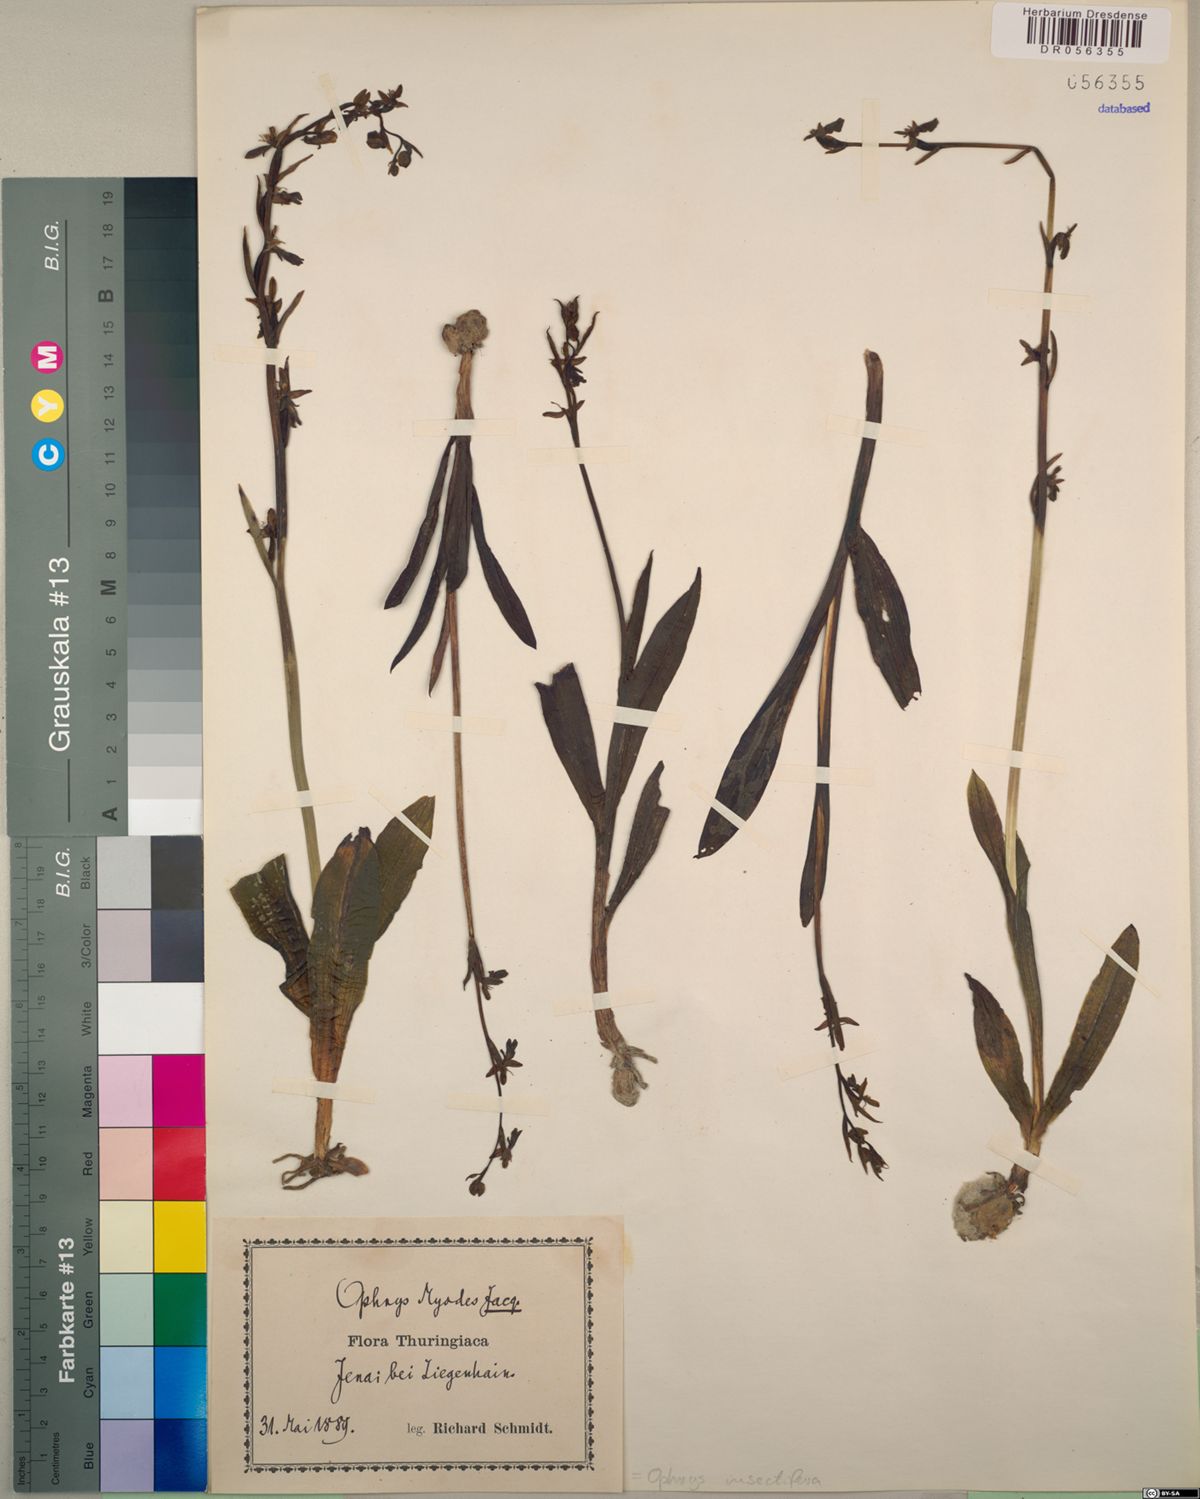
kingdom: Plantae
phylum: Tracheophyta
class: Liliopsida
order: Asparagales
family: Orchidaceae
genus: Ophrys
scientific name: Ophrys insectifera
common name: Fly orchid
